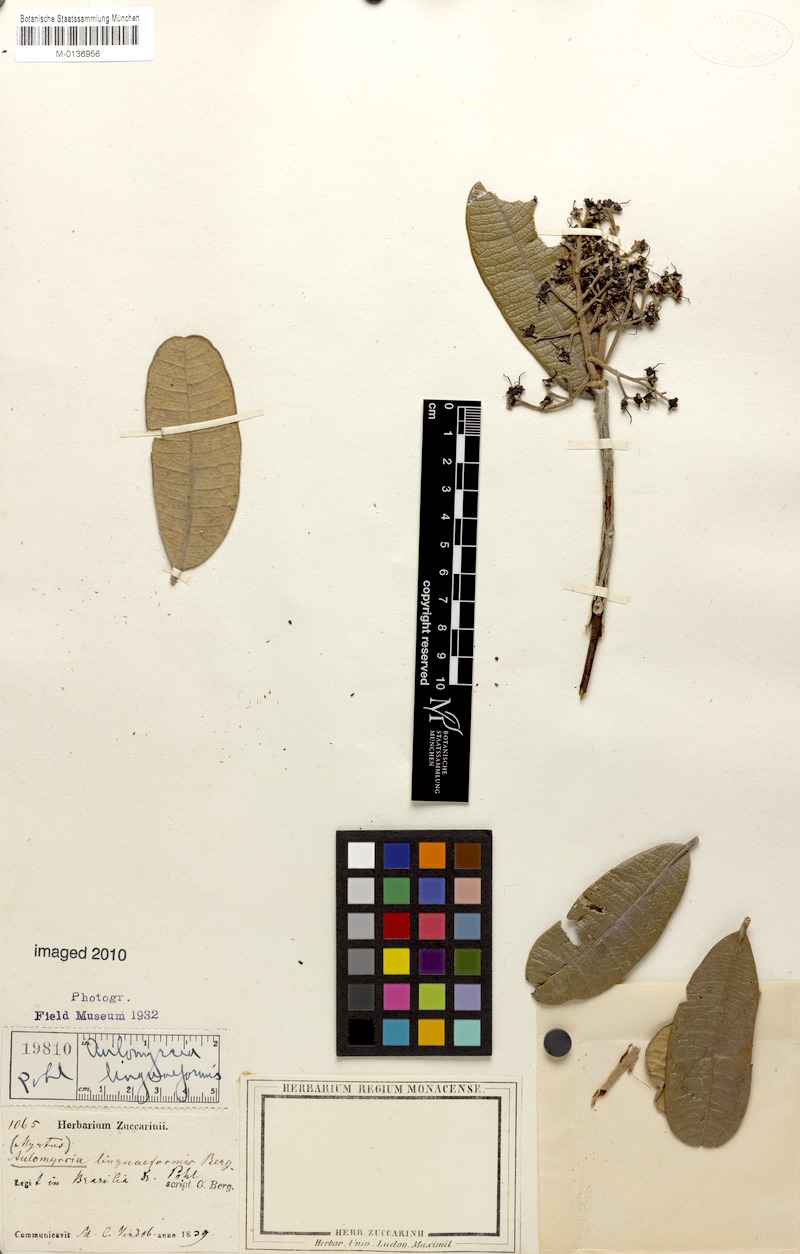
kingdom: Plantae
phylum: Tracheophyta
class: Magnoliopsida
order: Myrtales
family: Myrtaceae
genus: Myrcia
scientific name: Myrcia vestita
